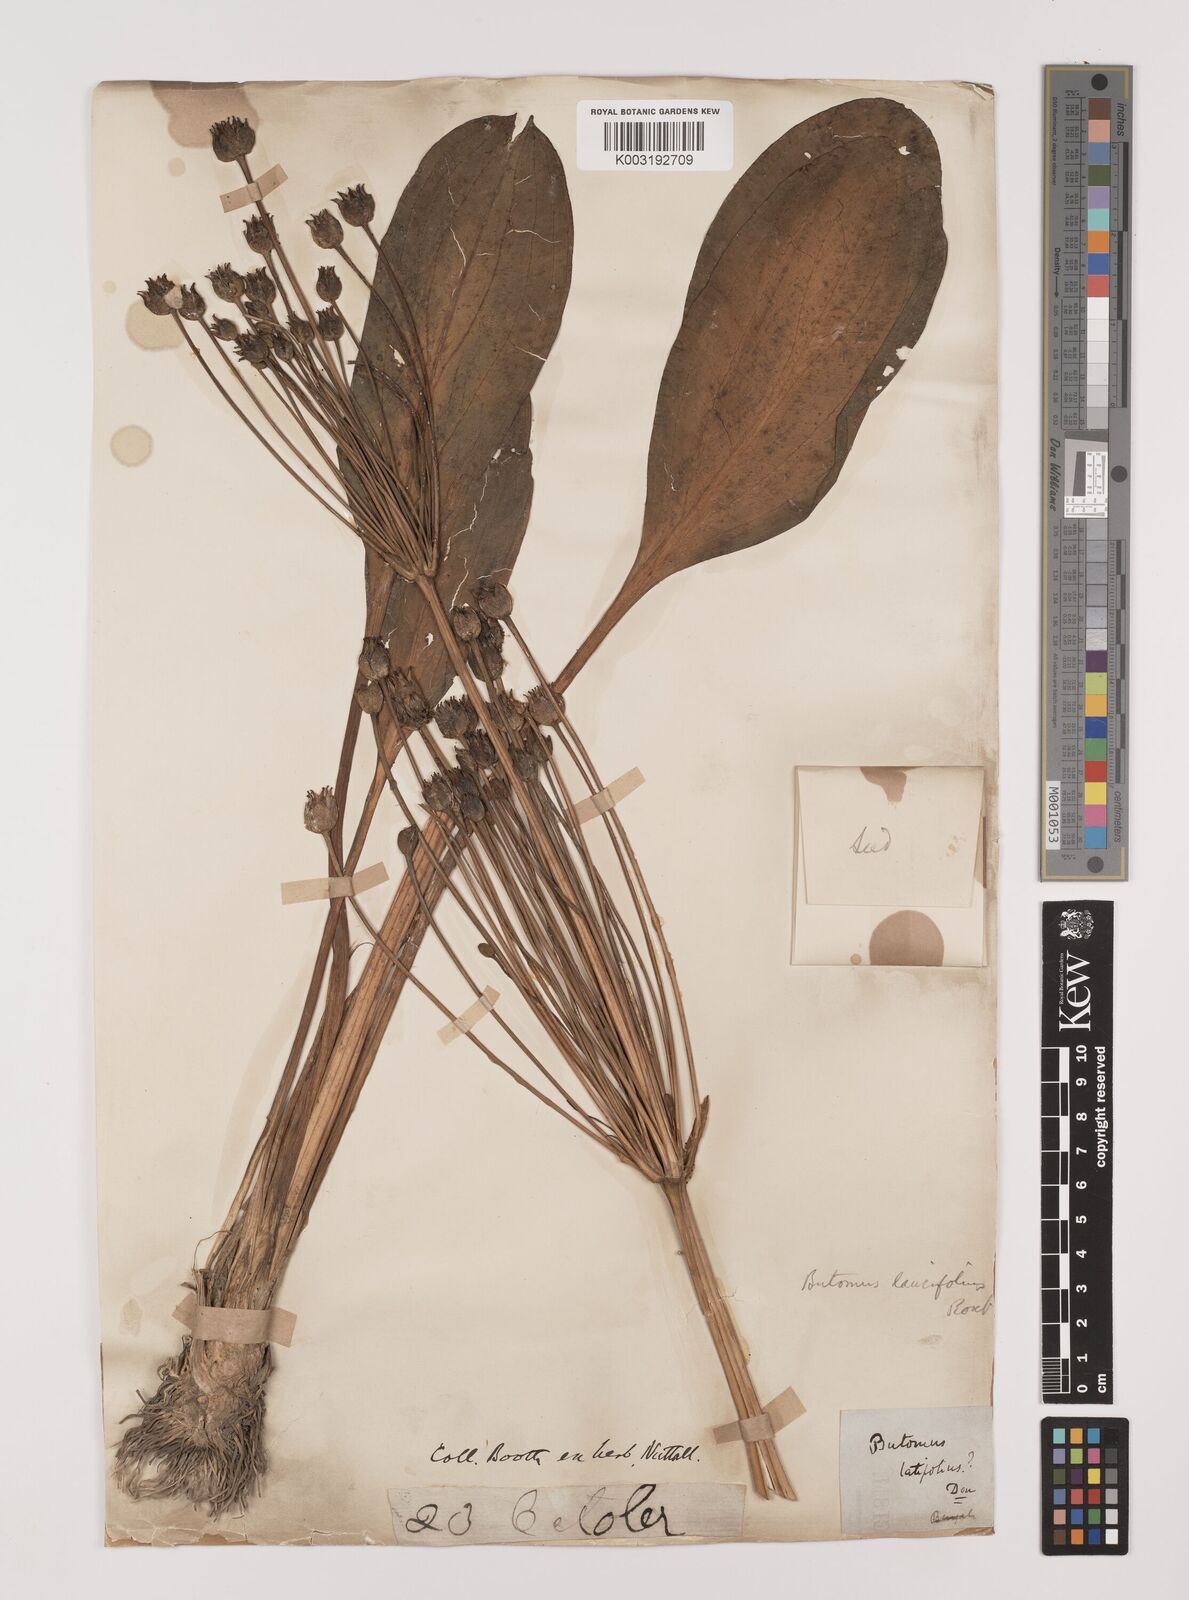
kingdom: Plantae
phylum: Tracheophyta
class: Liliopsida
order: Alismatales
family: Alismataceae
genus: Butomopsis
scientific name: Butomopsis latifolia
